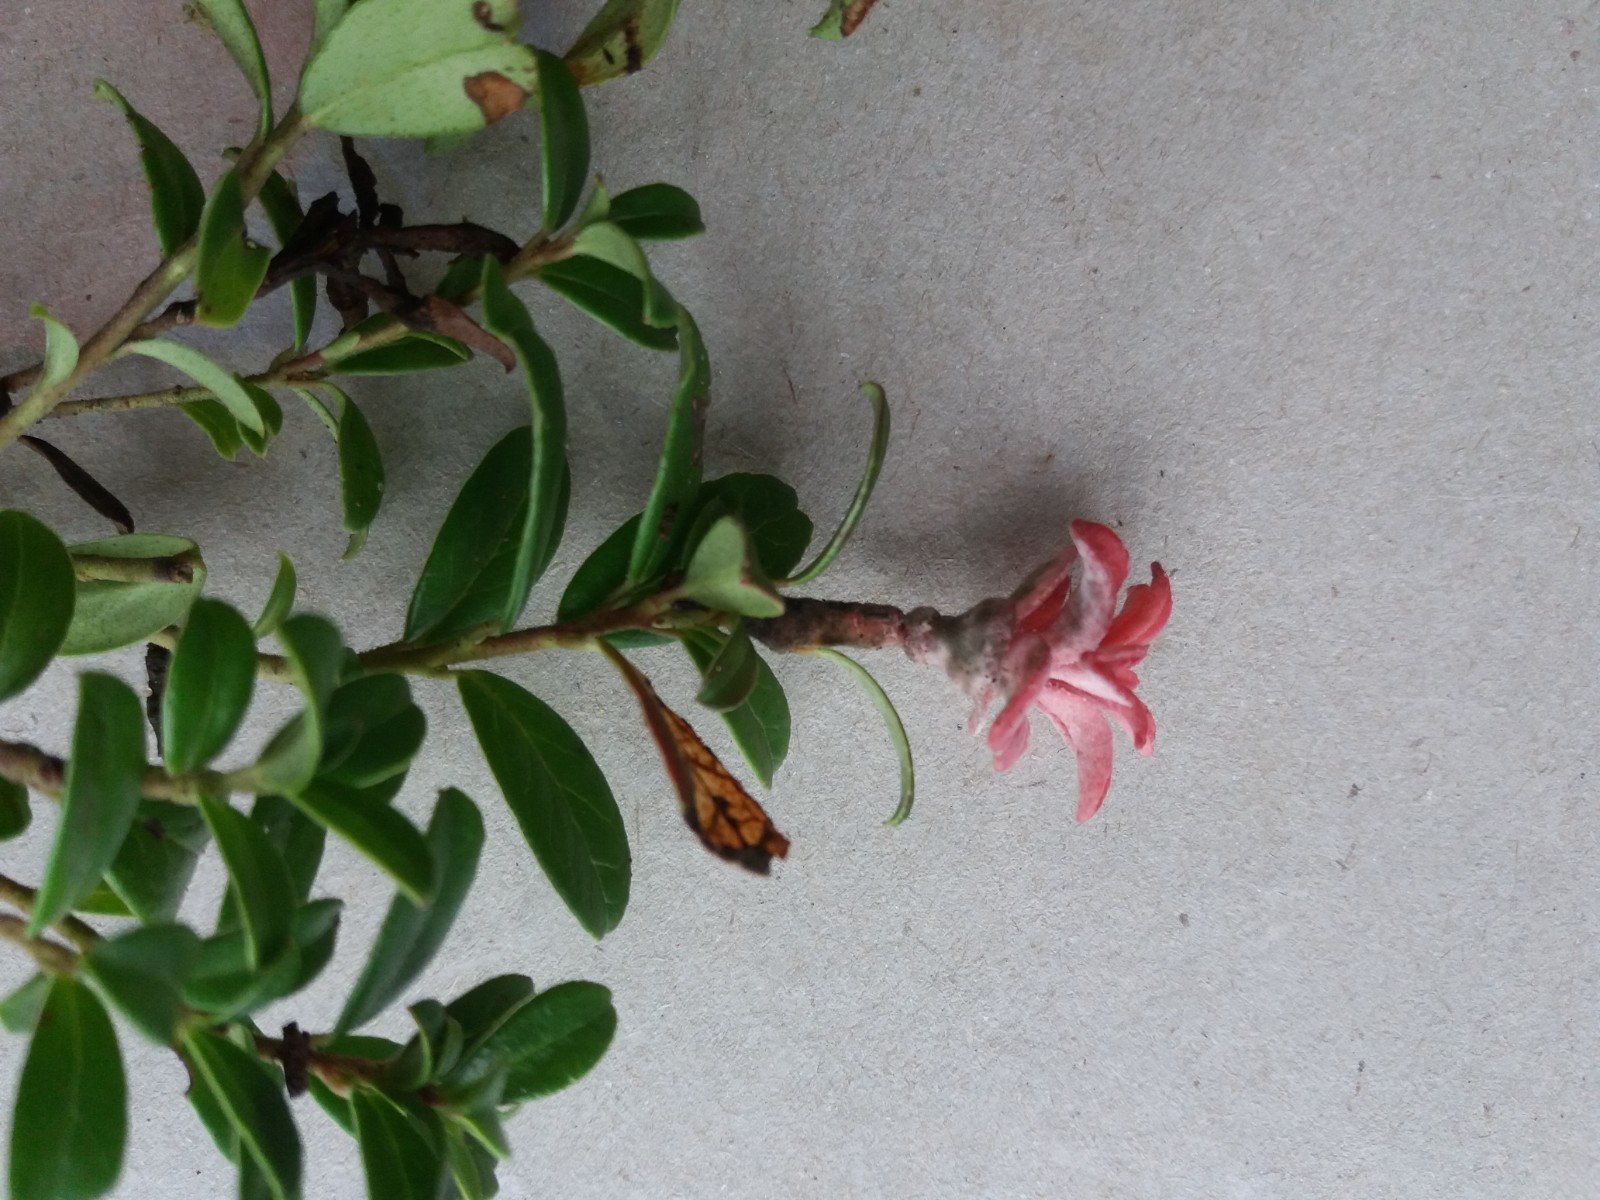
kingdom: Fungi
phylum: Basidiomycota
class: Exobasidiomycetes
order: Exobasidiales
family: Exobasidiaceae
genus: Exobasidium
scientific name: Exobasidium vaccinii
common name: tyttebærblad-bøllesvamp
